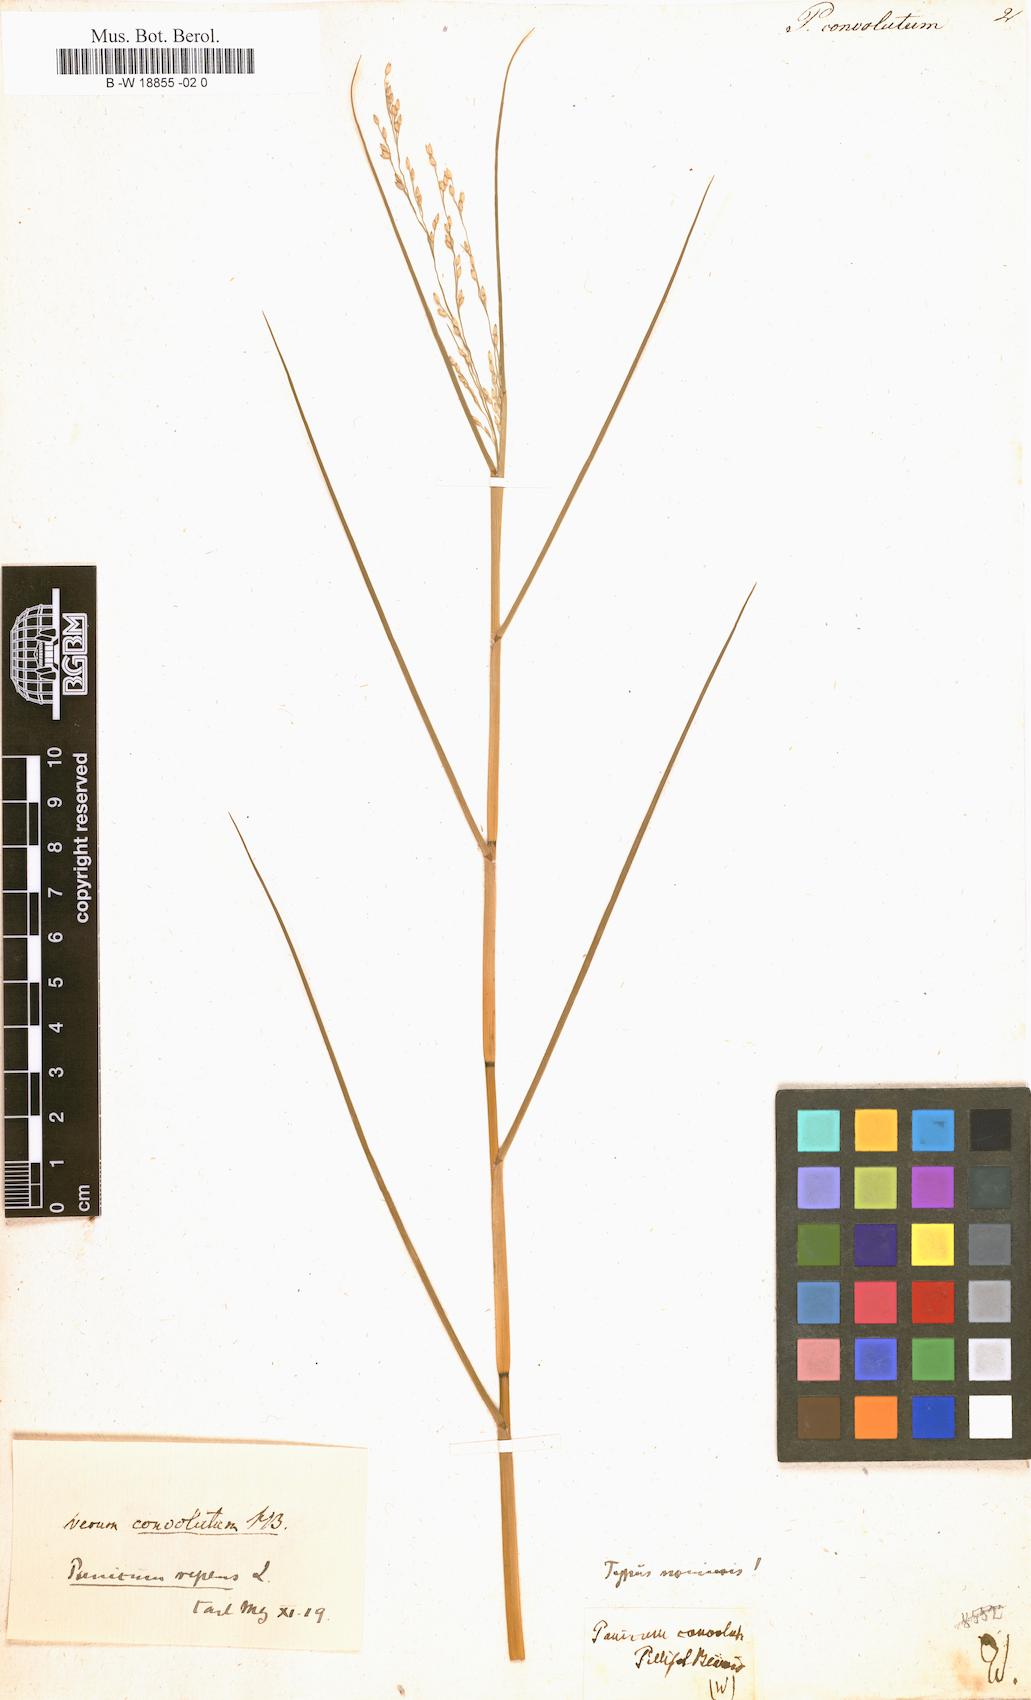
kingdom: Plantae
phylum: Tracheophyta
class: Liliopsida
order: Poales
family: Poaceae
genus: Panicum
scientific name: Panicum repens
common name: Torpedo grass
